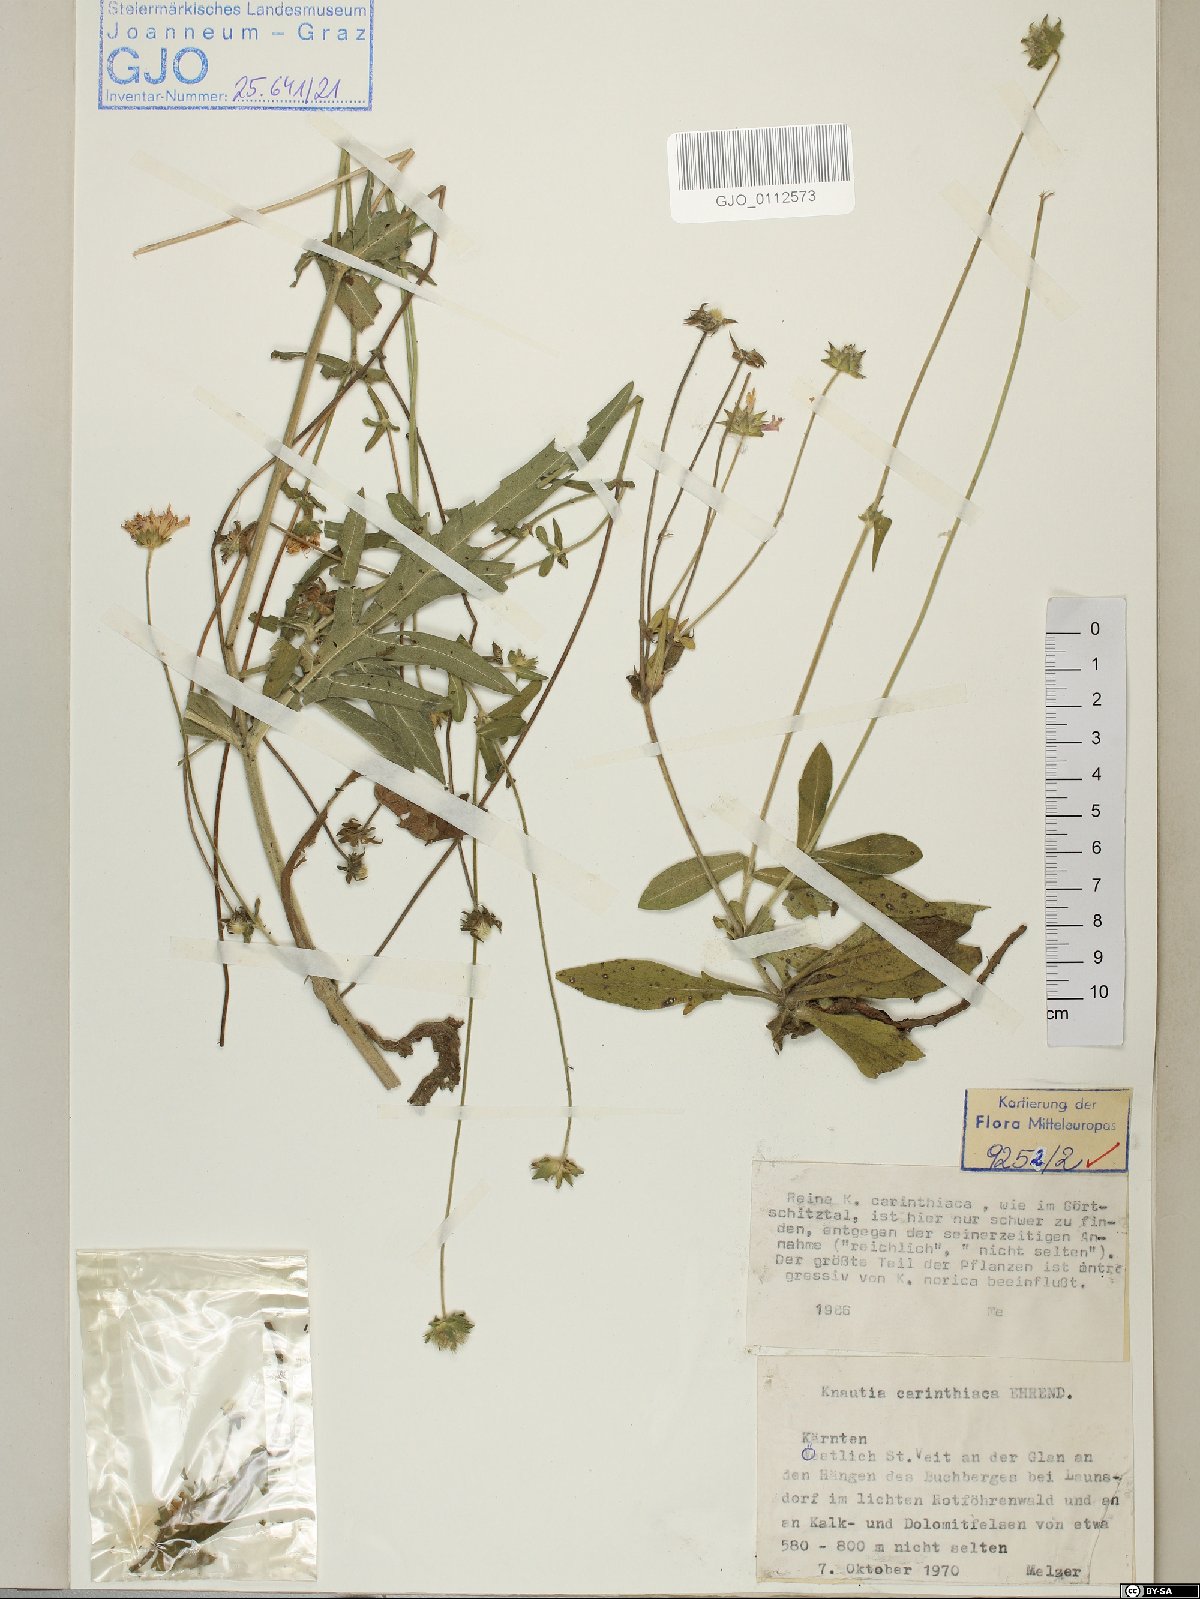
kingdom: Plantae
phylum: Tracheophyta
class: Magnoliopsida
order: Dipsacales
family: Caprifoliaceae
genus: Knautia
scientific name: Knautia carinthiaca
